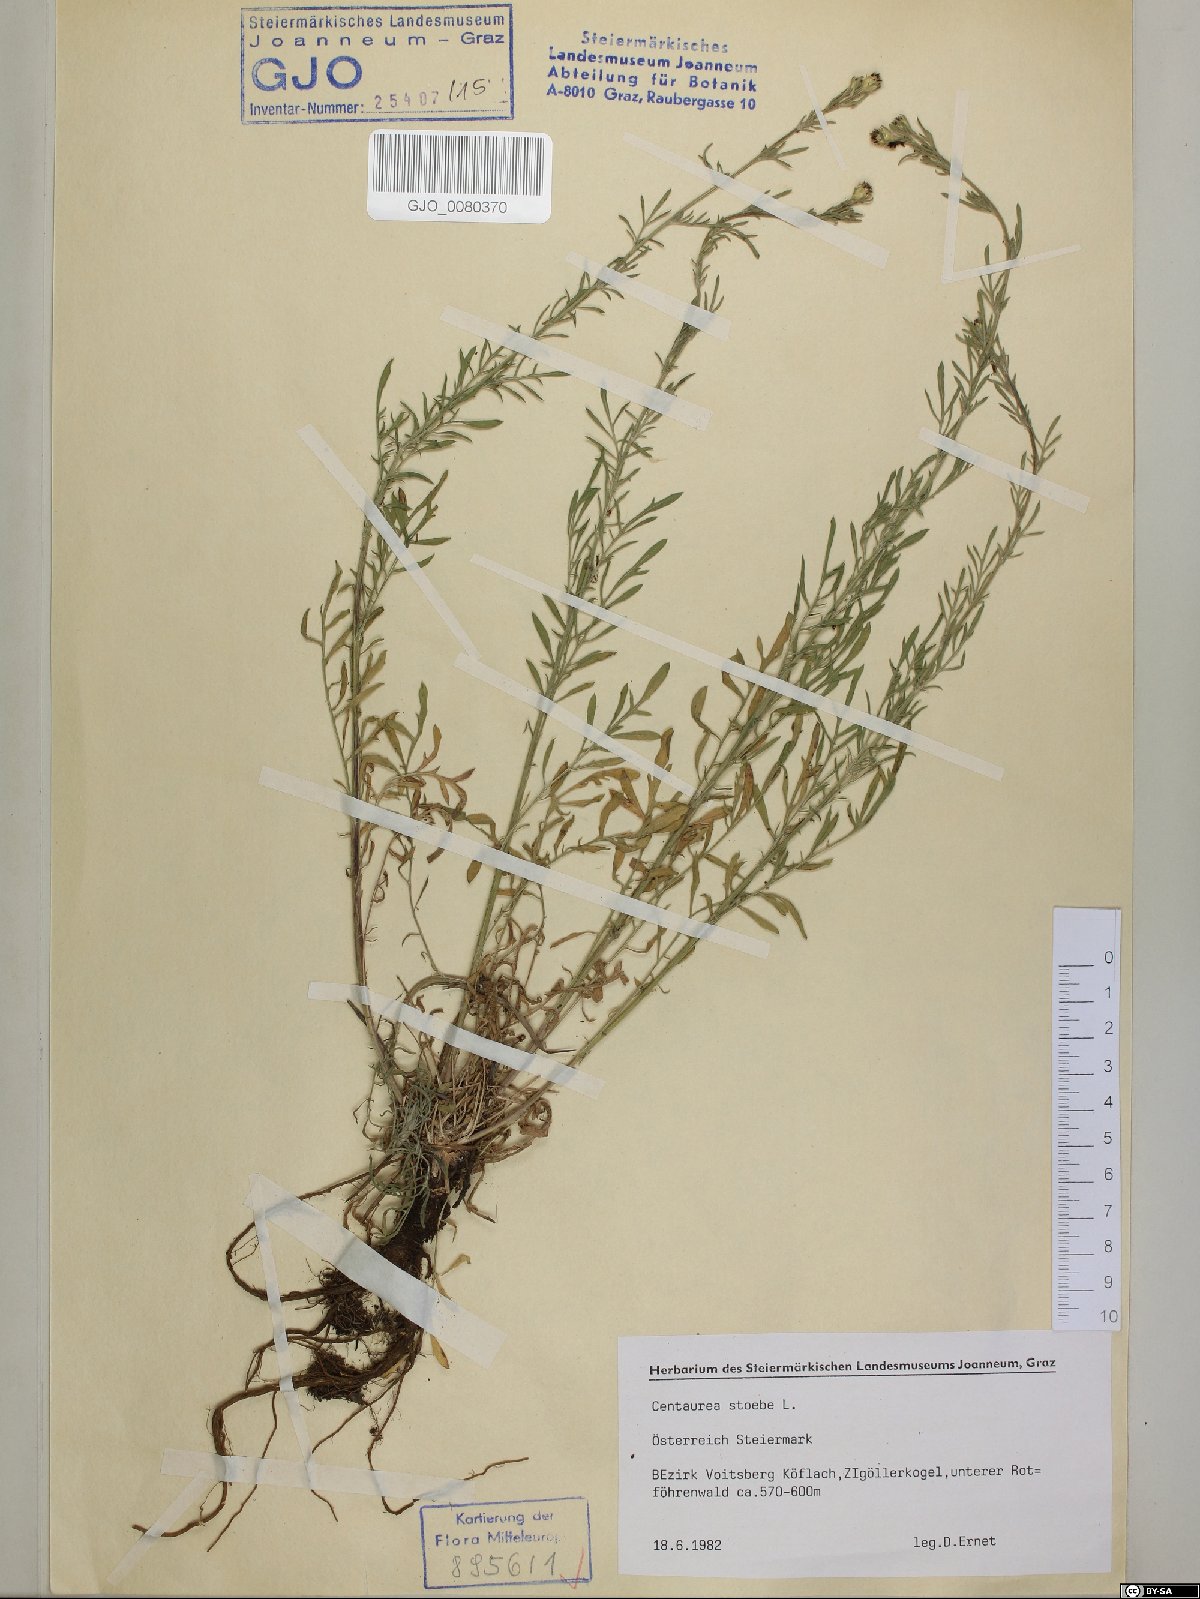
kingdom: Plantae
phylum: Tracheophyta
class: Magnoliopsida
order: Asterales
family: Asteraceae
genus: Centaurea
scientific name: Centaurea stoebe
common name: Spotted knapweed
